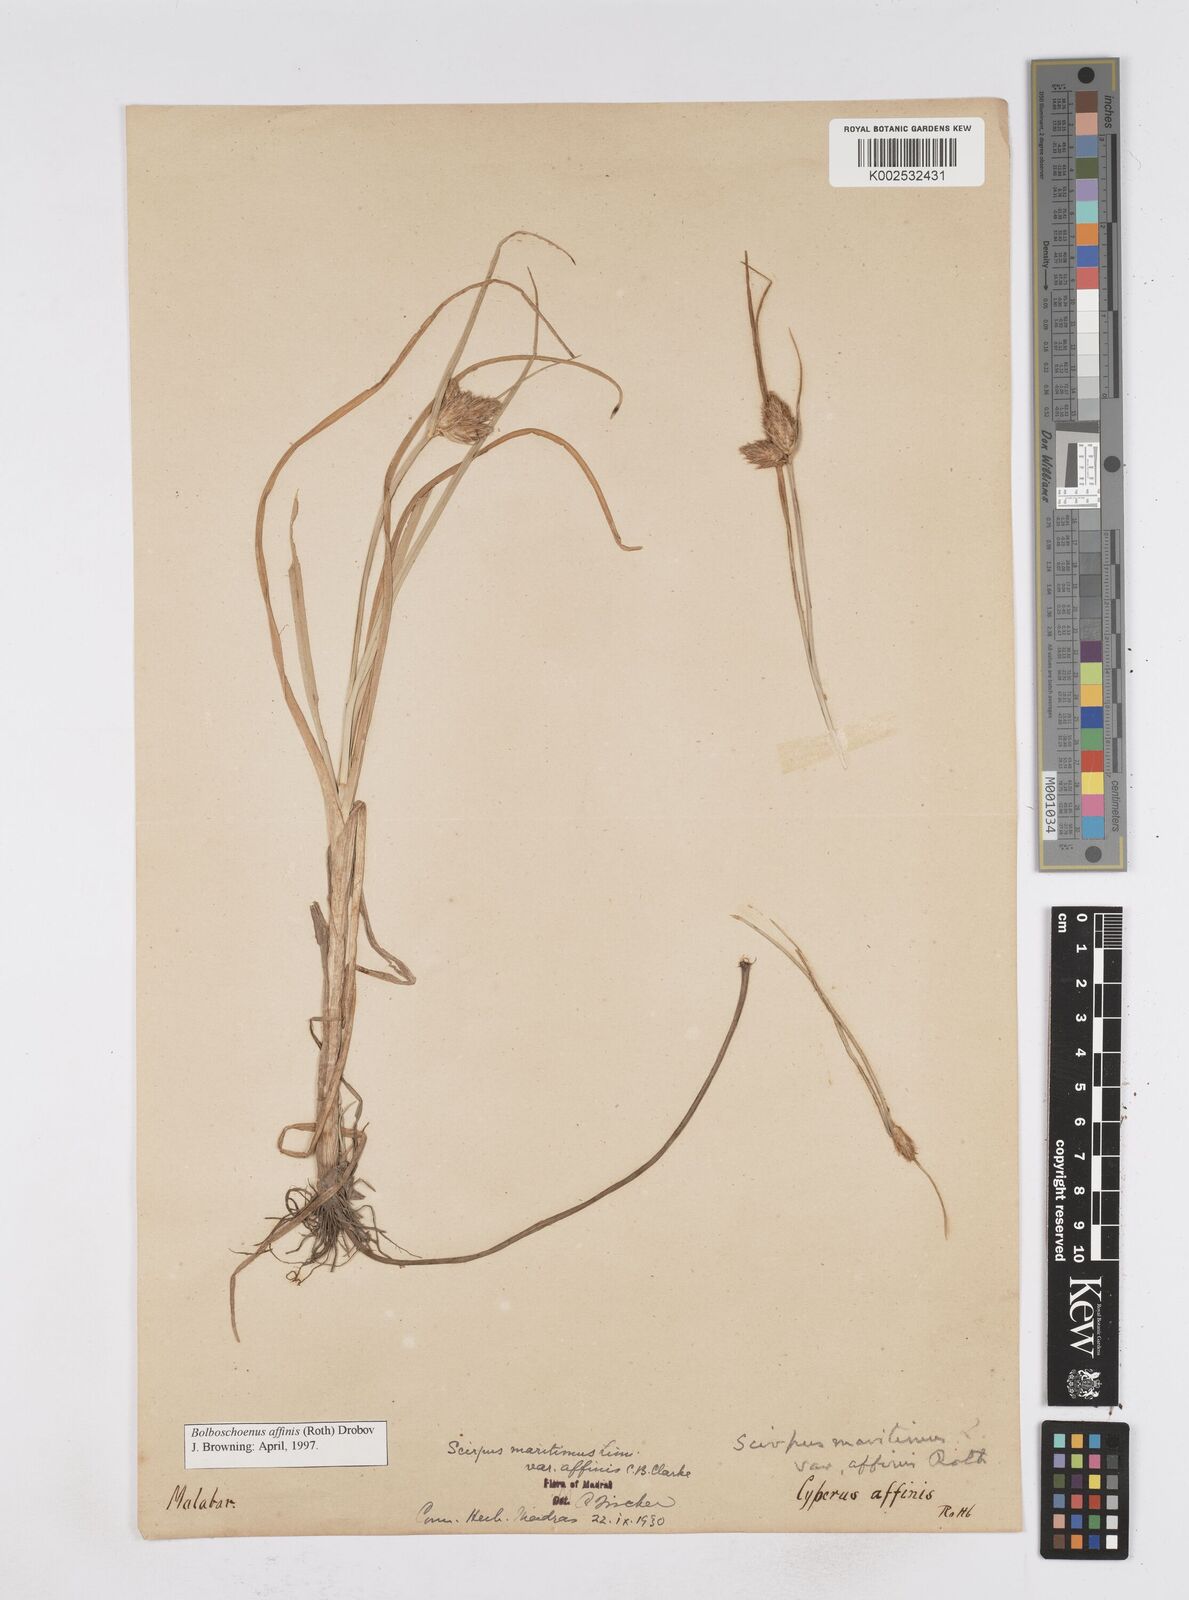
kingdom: Plantae
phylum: Tracheophyta
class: Liliopsida
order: Poales
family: Cyperaceae
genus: Bolboschoenus
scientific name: Bolboschoenus maritimus
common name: Sea club-rush
